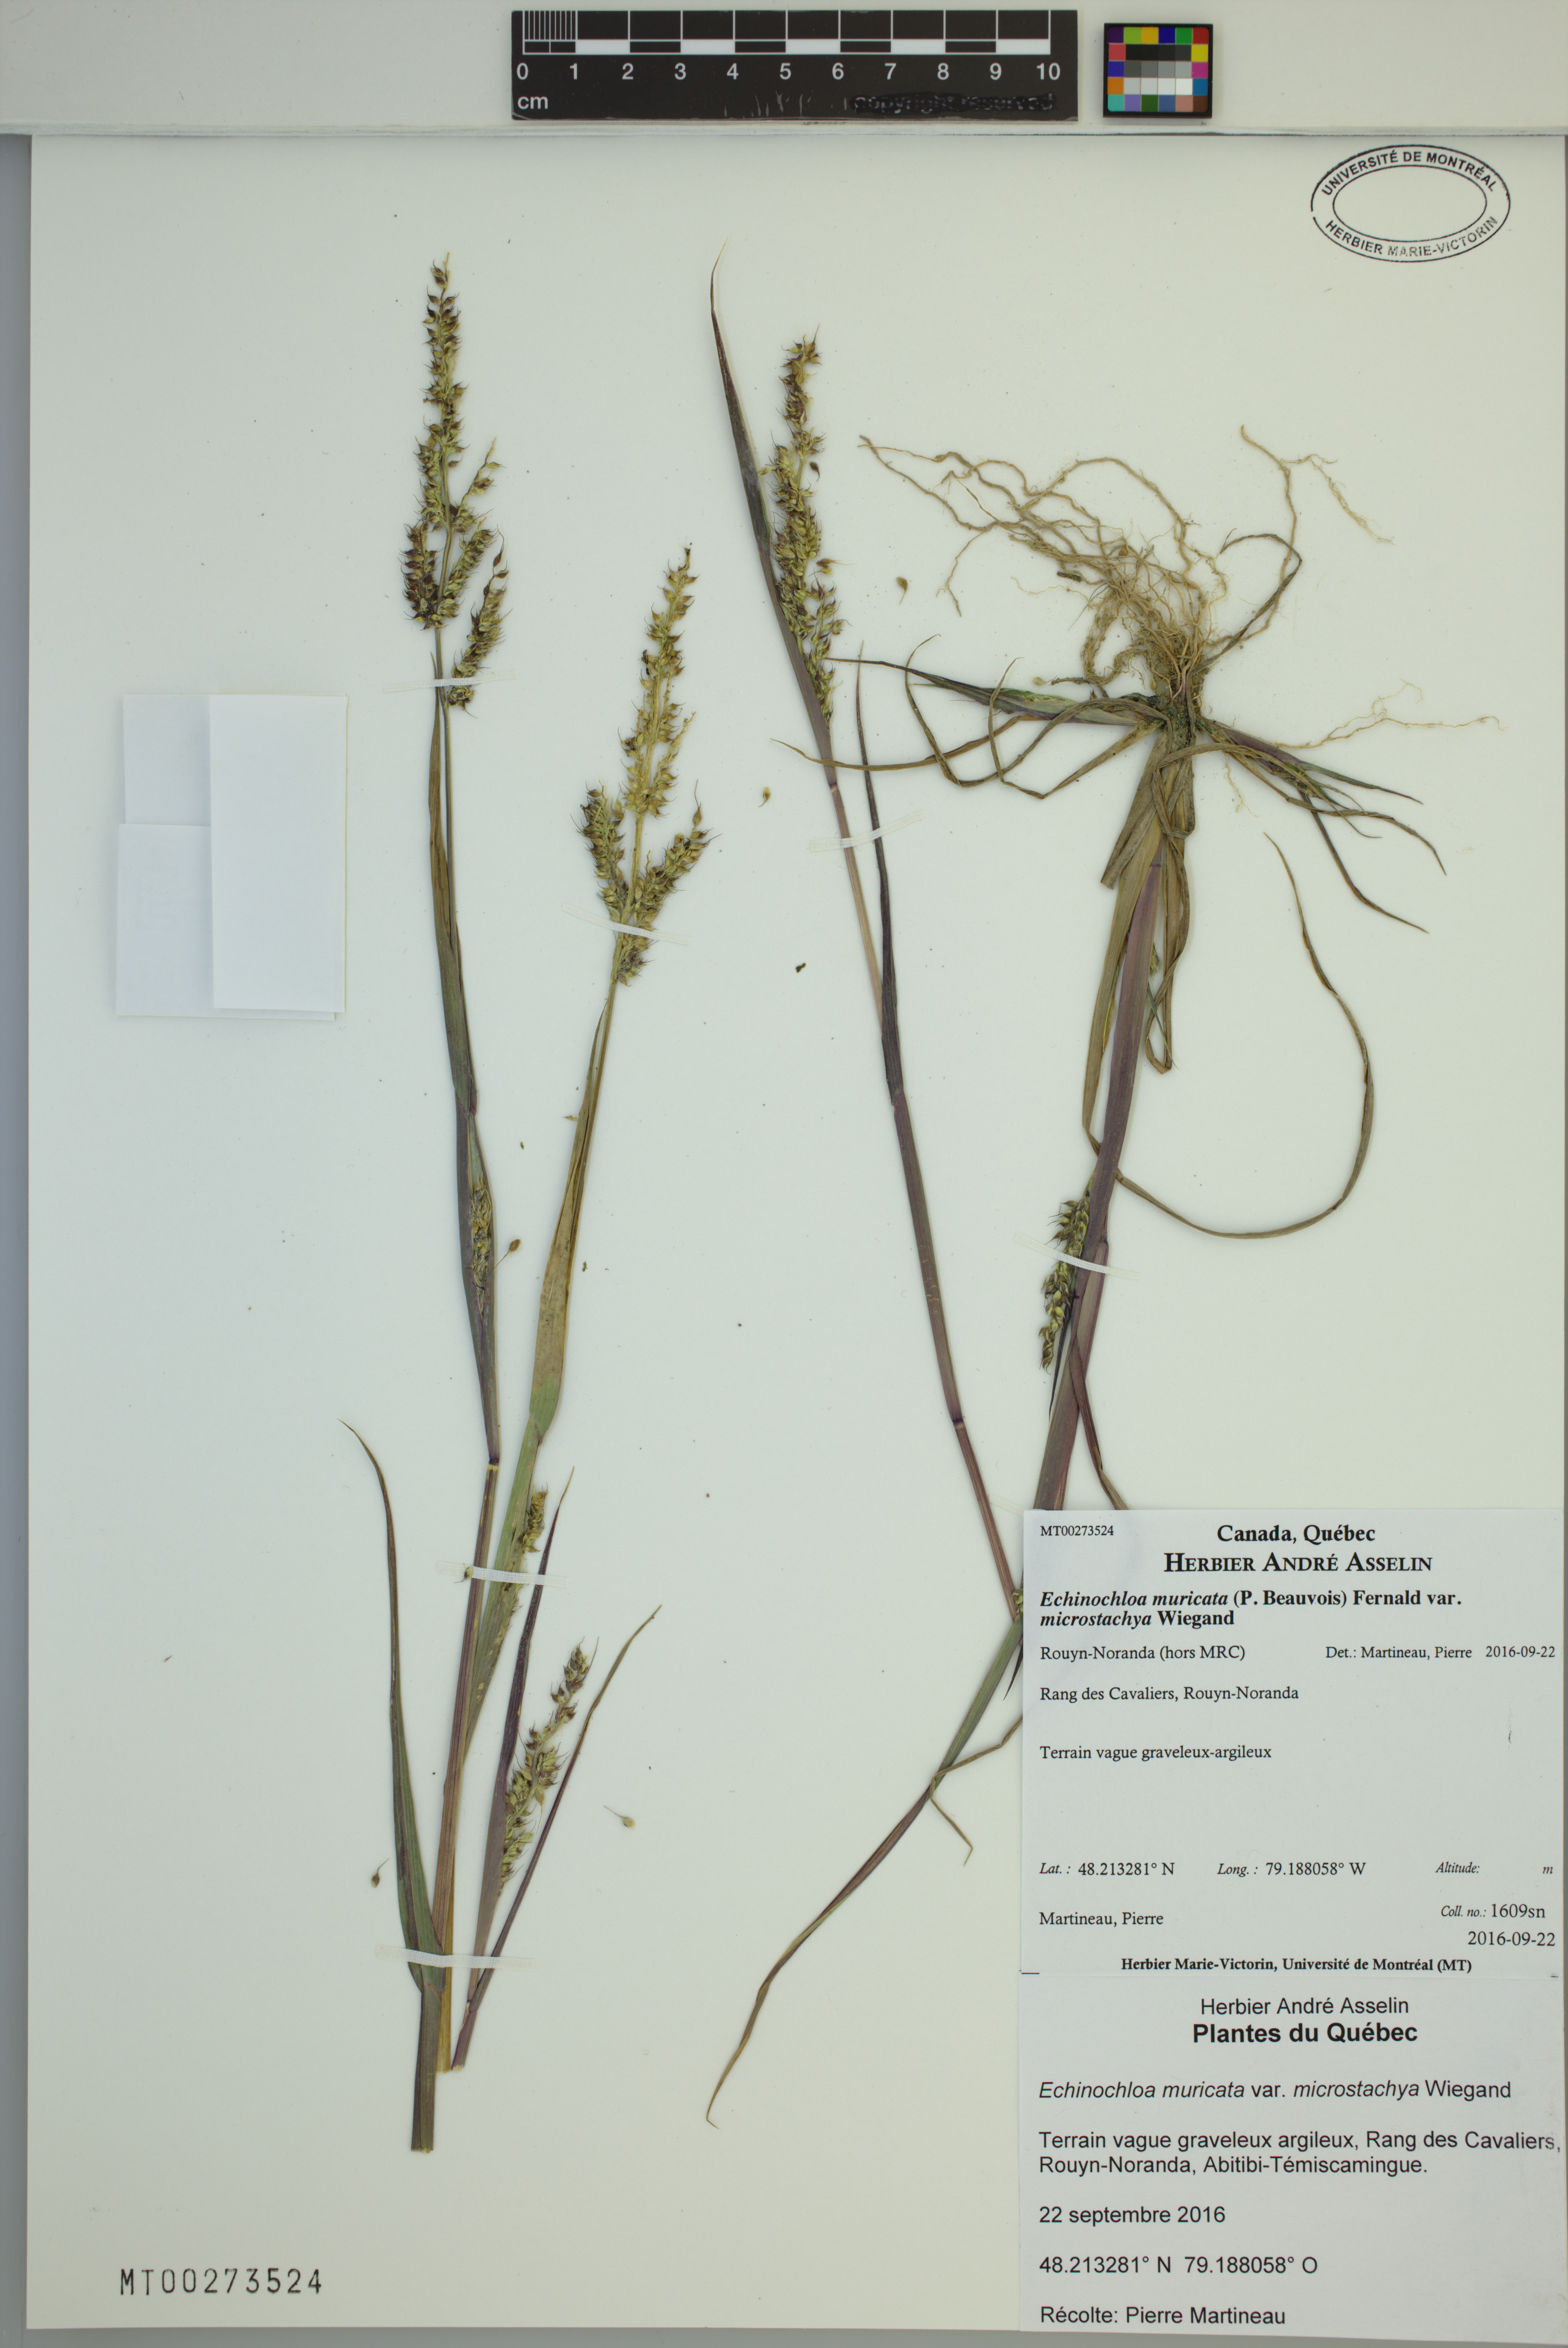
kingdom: Plantae
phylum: Tracheophyta
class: Liliopsida
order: Poales
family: Poaceae
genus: Echinochloa
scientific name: Echinochloa muricata
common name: American barnyard grass
